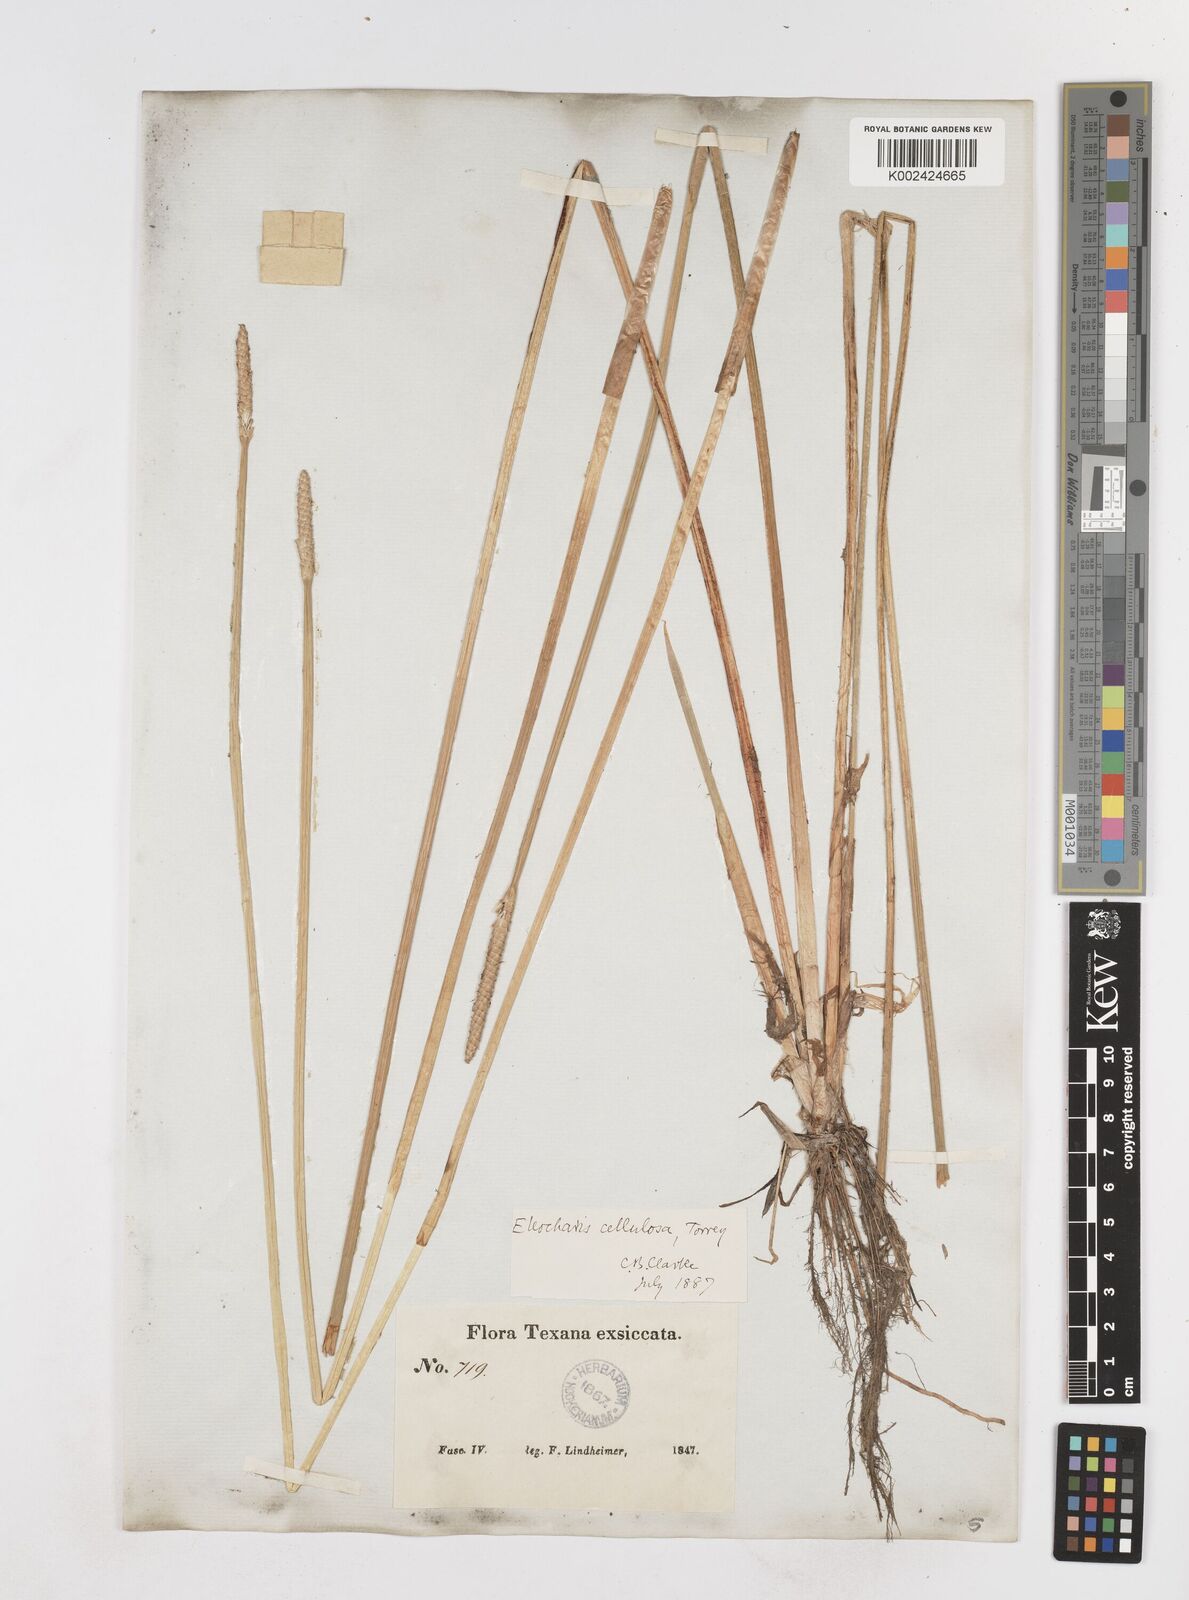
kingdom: Plantae
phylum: Tracheophyta
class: Liliopsida
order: Poales
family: Cyperaceae
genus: Eleocharis
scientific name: Eleocharis cellulosa
